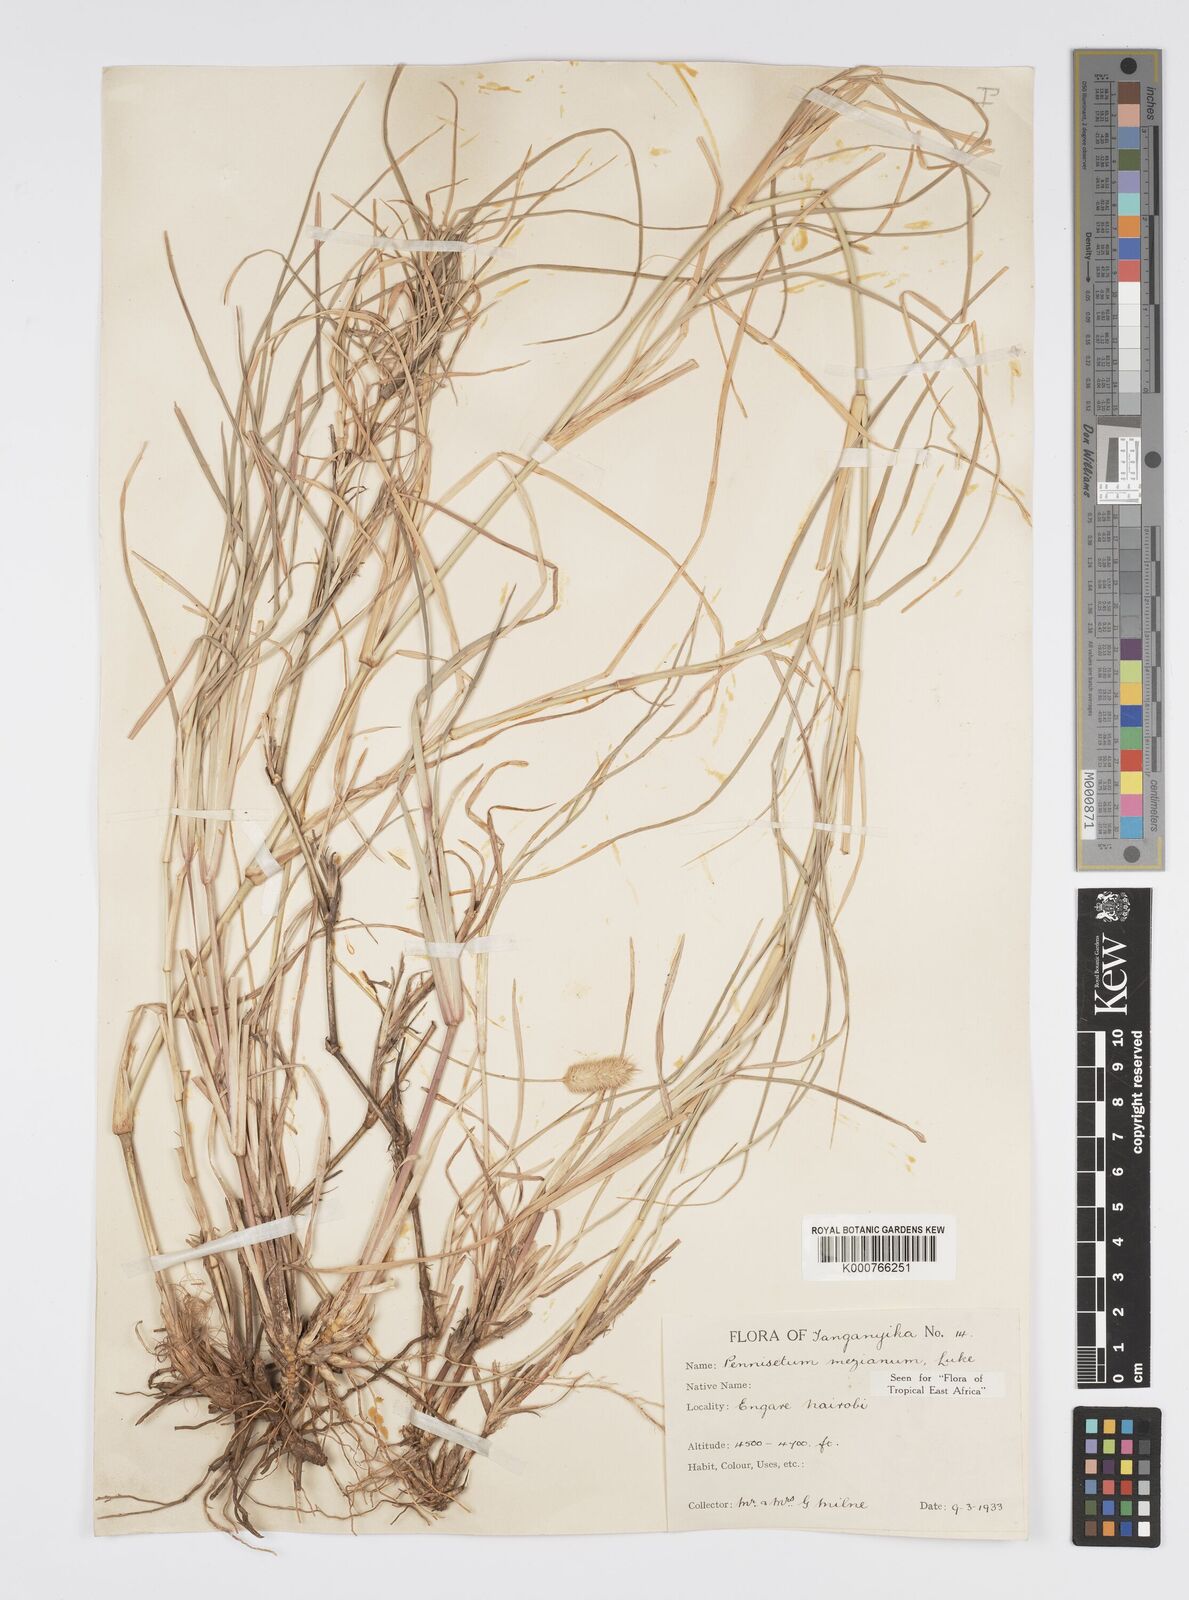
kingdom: Plantae
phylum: Tracheophyta
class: Liliopsida
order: Poales
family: Poaceae
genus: Cenchrus
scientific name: Cenchrus mezianus
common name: Bamboo grass
